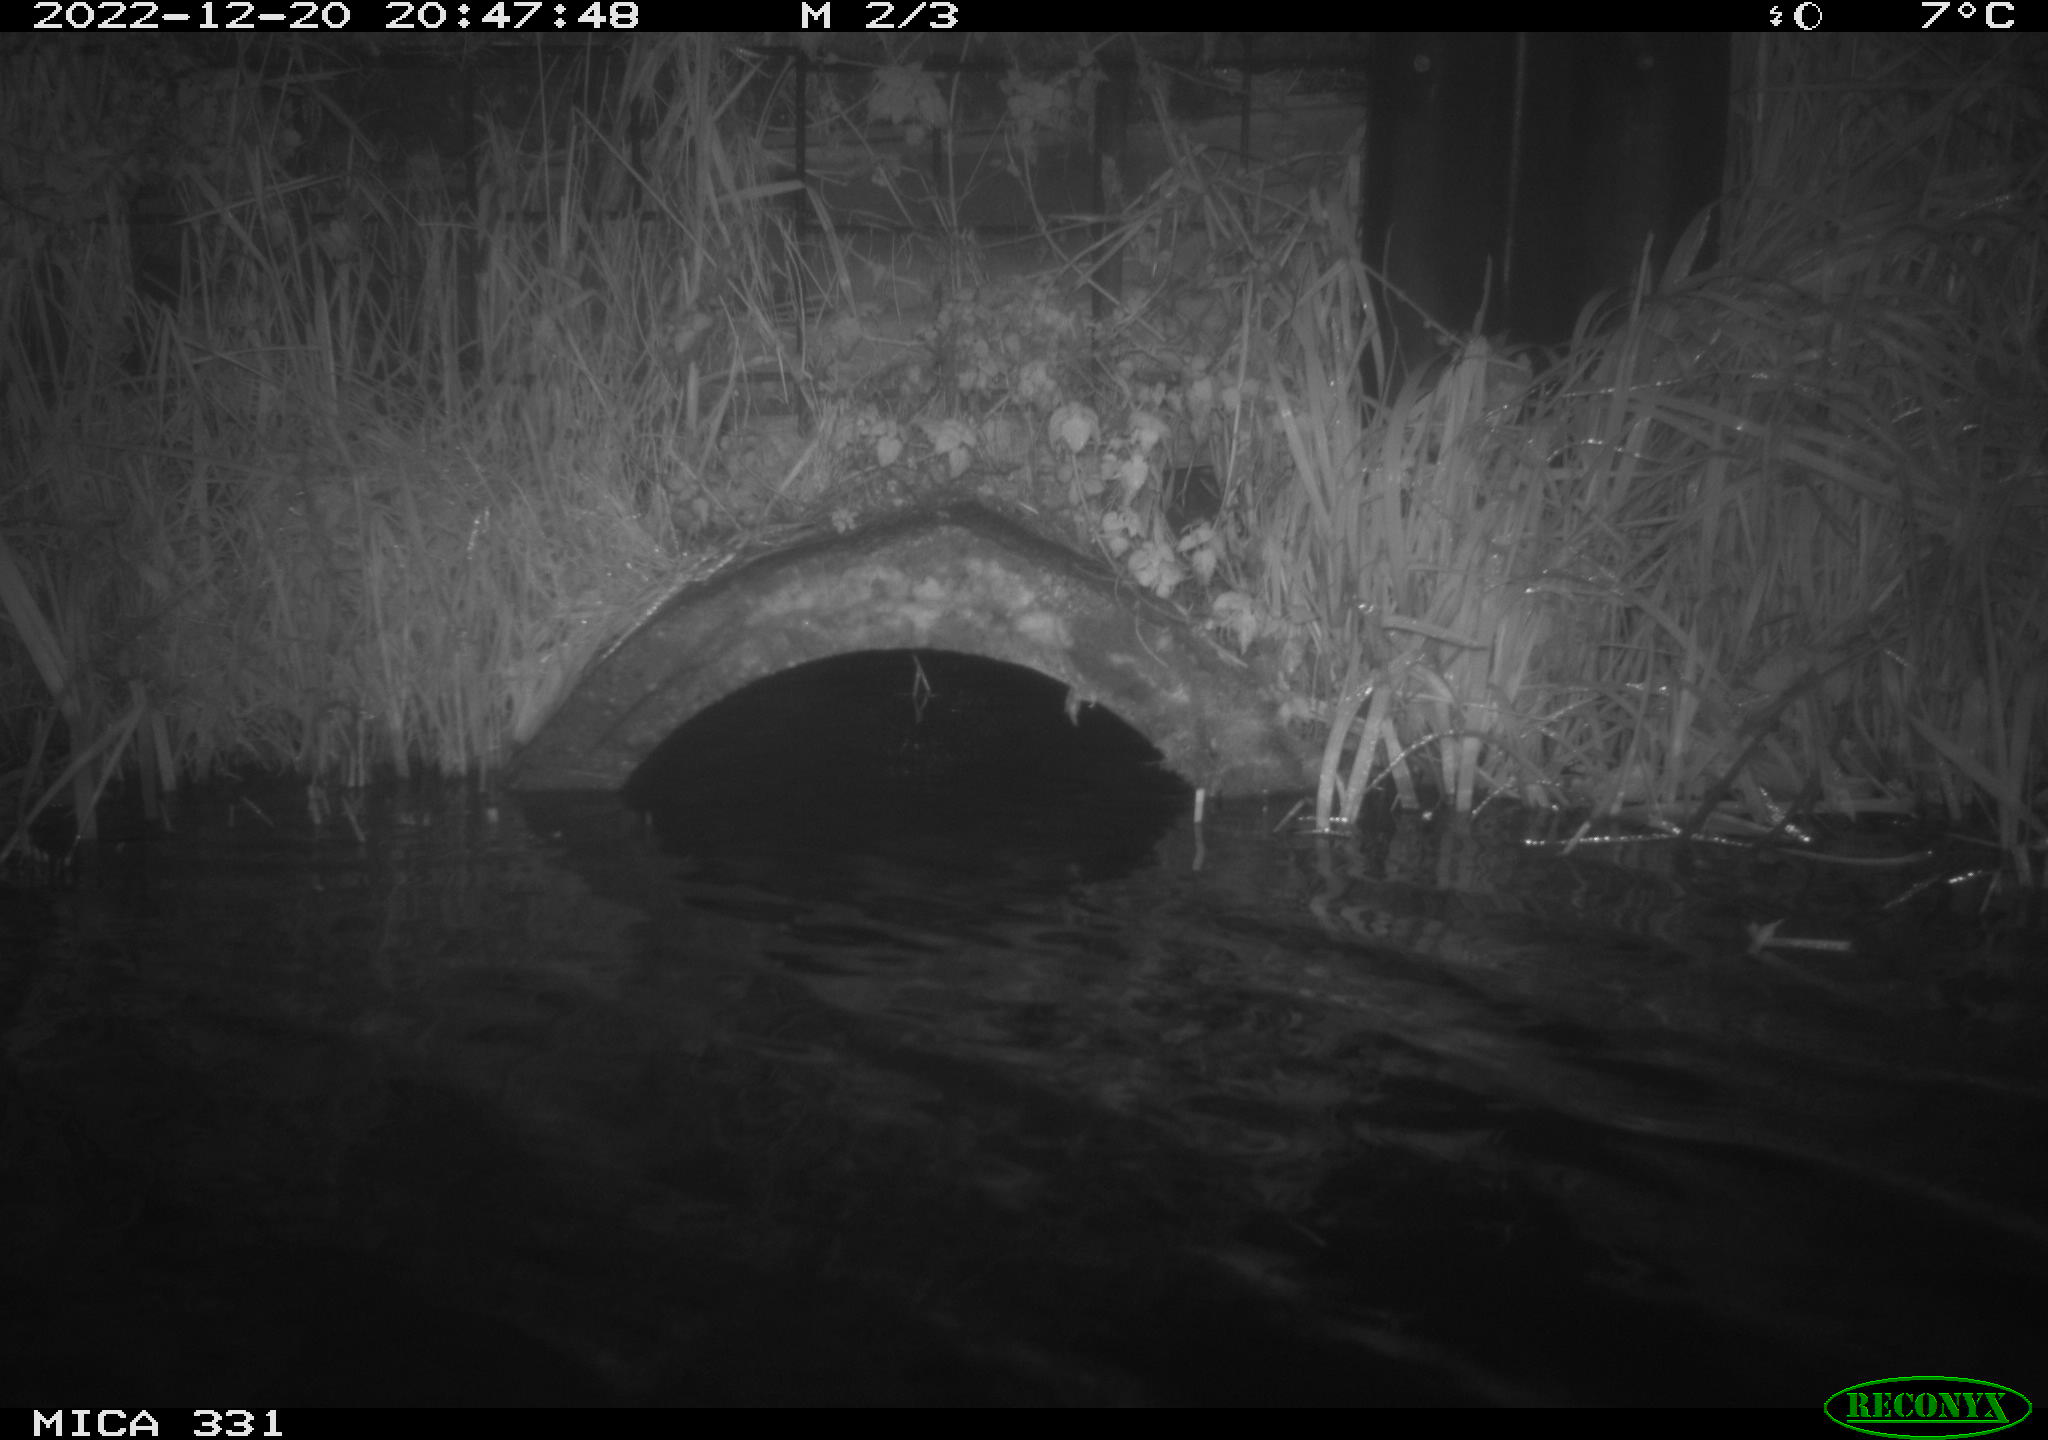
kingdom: Animalia
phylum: Chordata
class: Mammalia
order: Rodentia
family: Muridae
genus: Rattus
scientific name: Rattus norvegicus
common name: Brown rat
